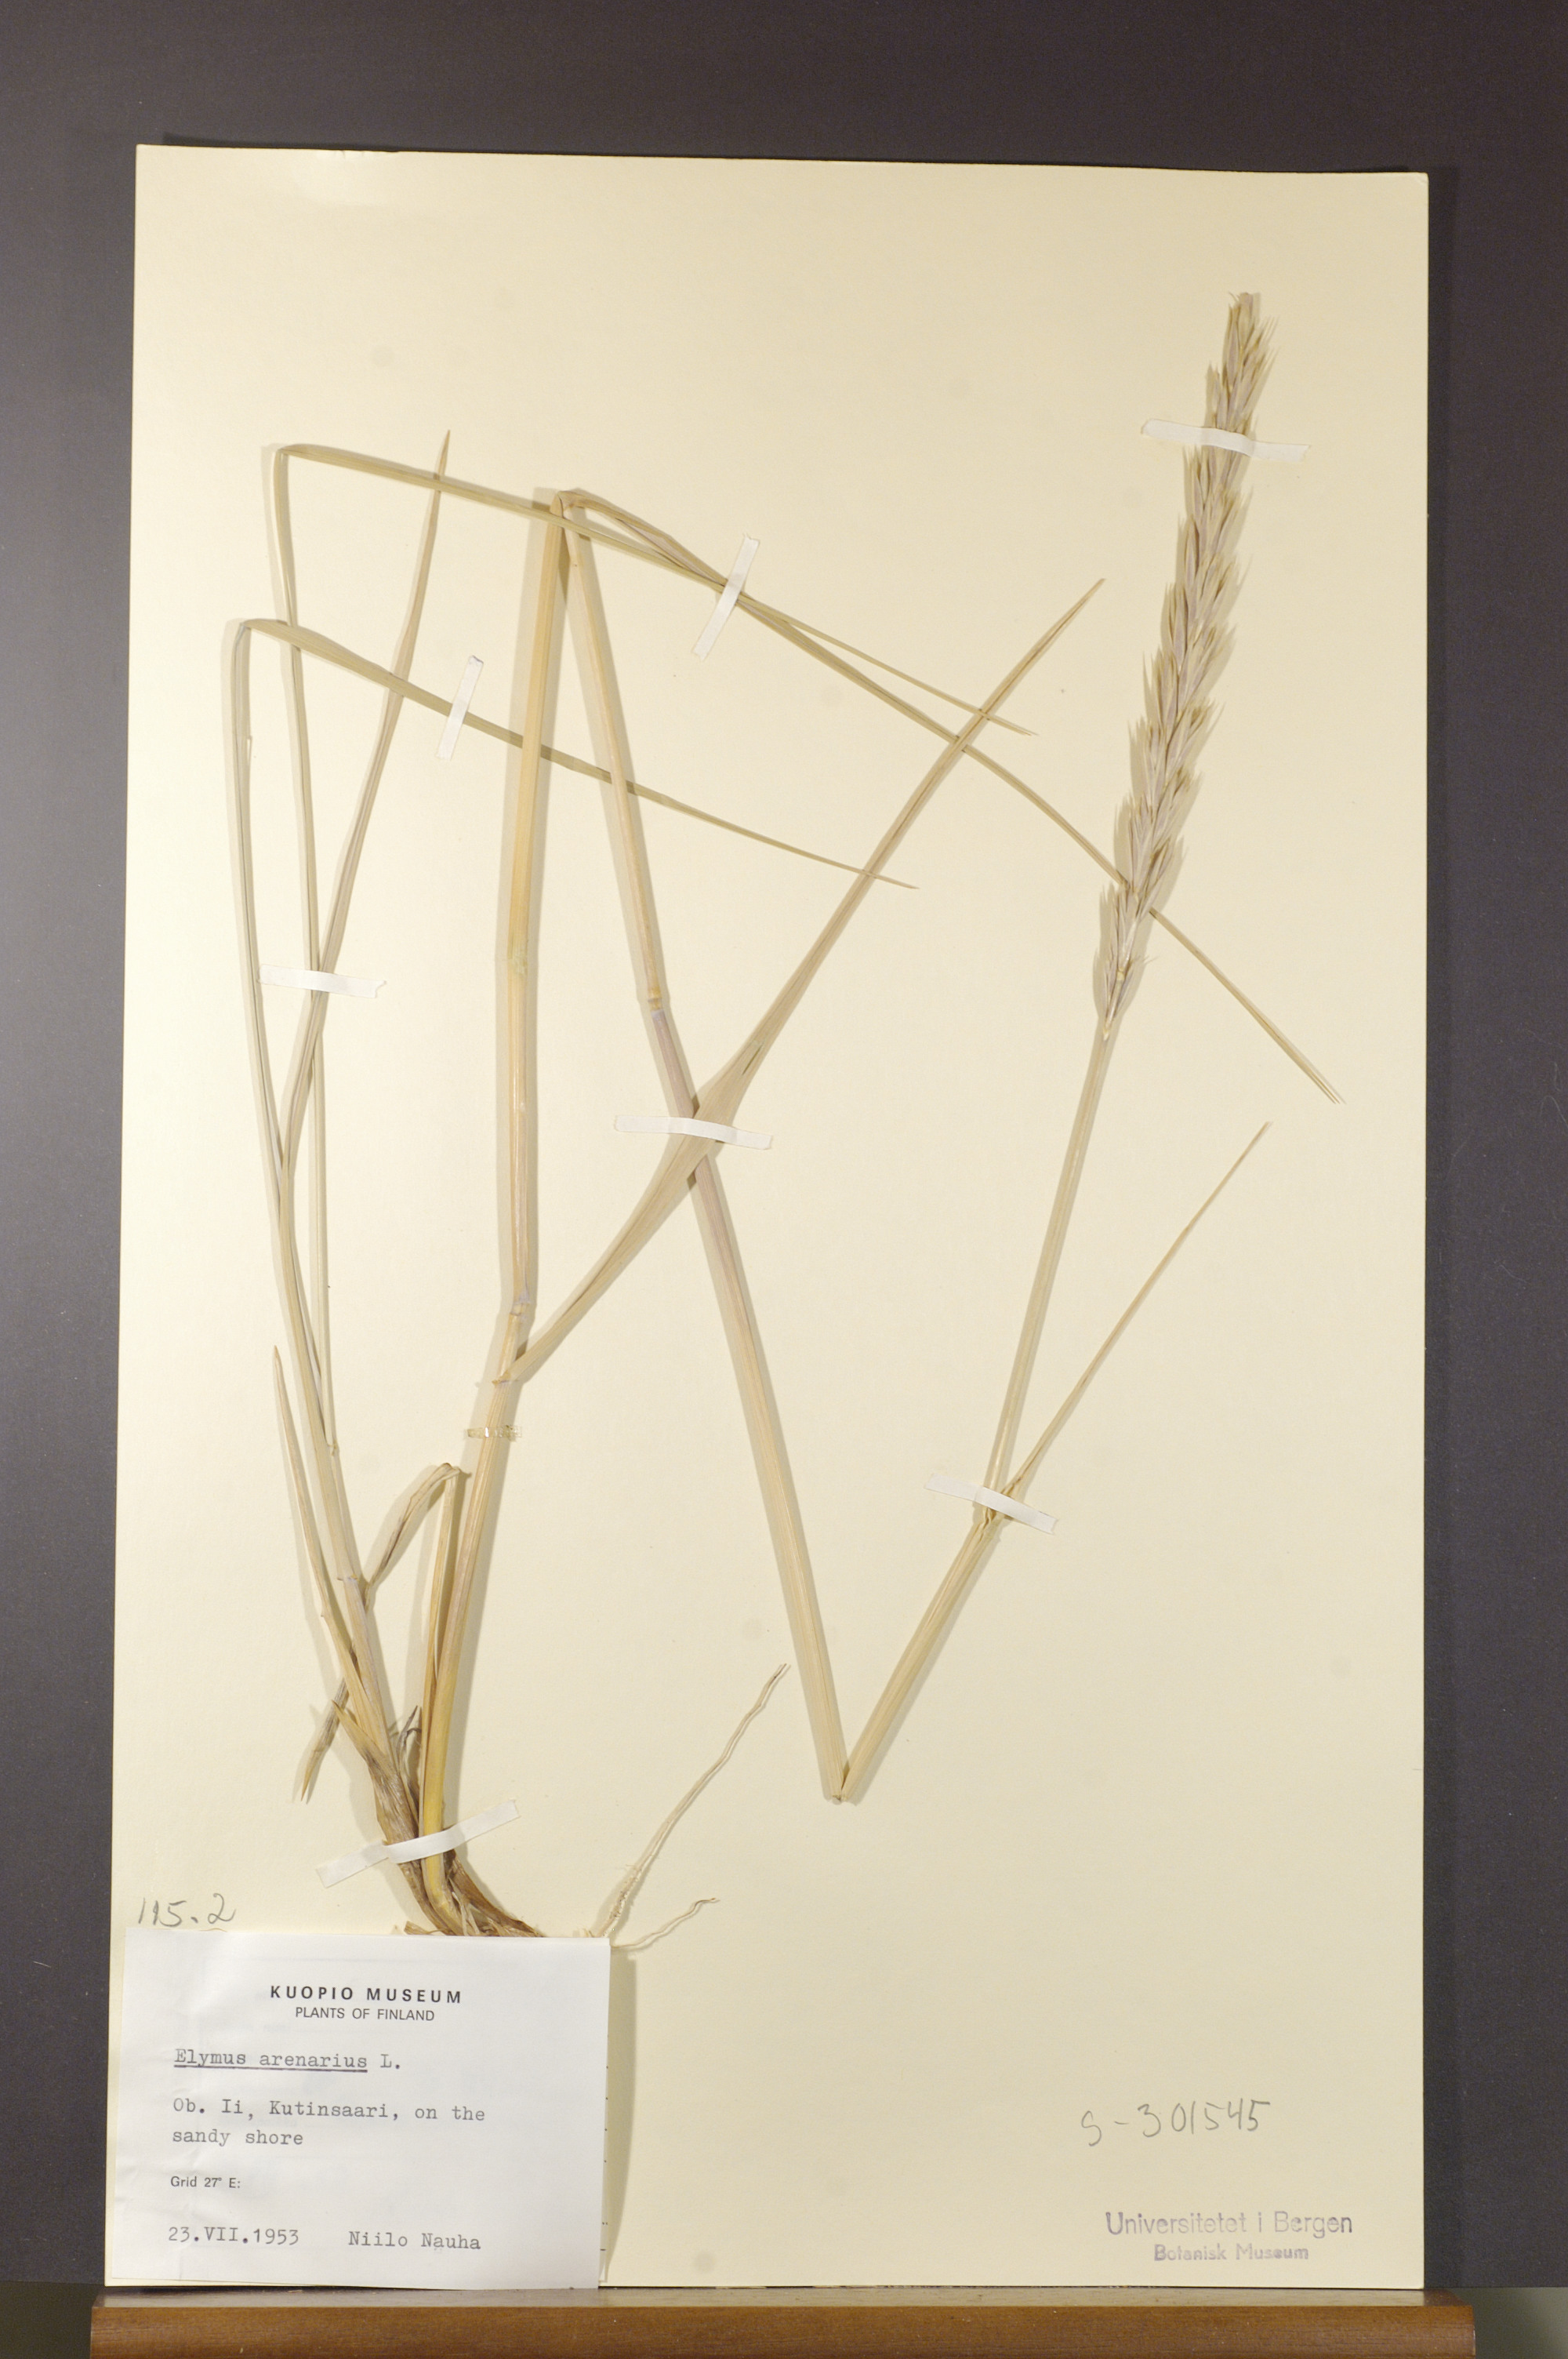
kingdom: Plantae
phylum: Tracheophyta
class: Liliopsida
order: Poales
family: Poaceae
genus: Leymus
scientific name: Leymus arenarius
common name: Lyme-grass
